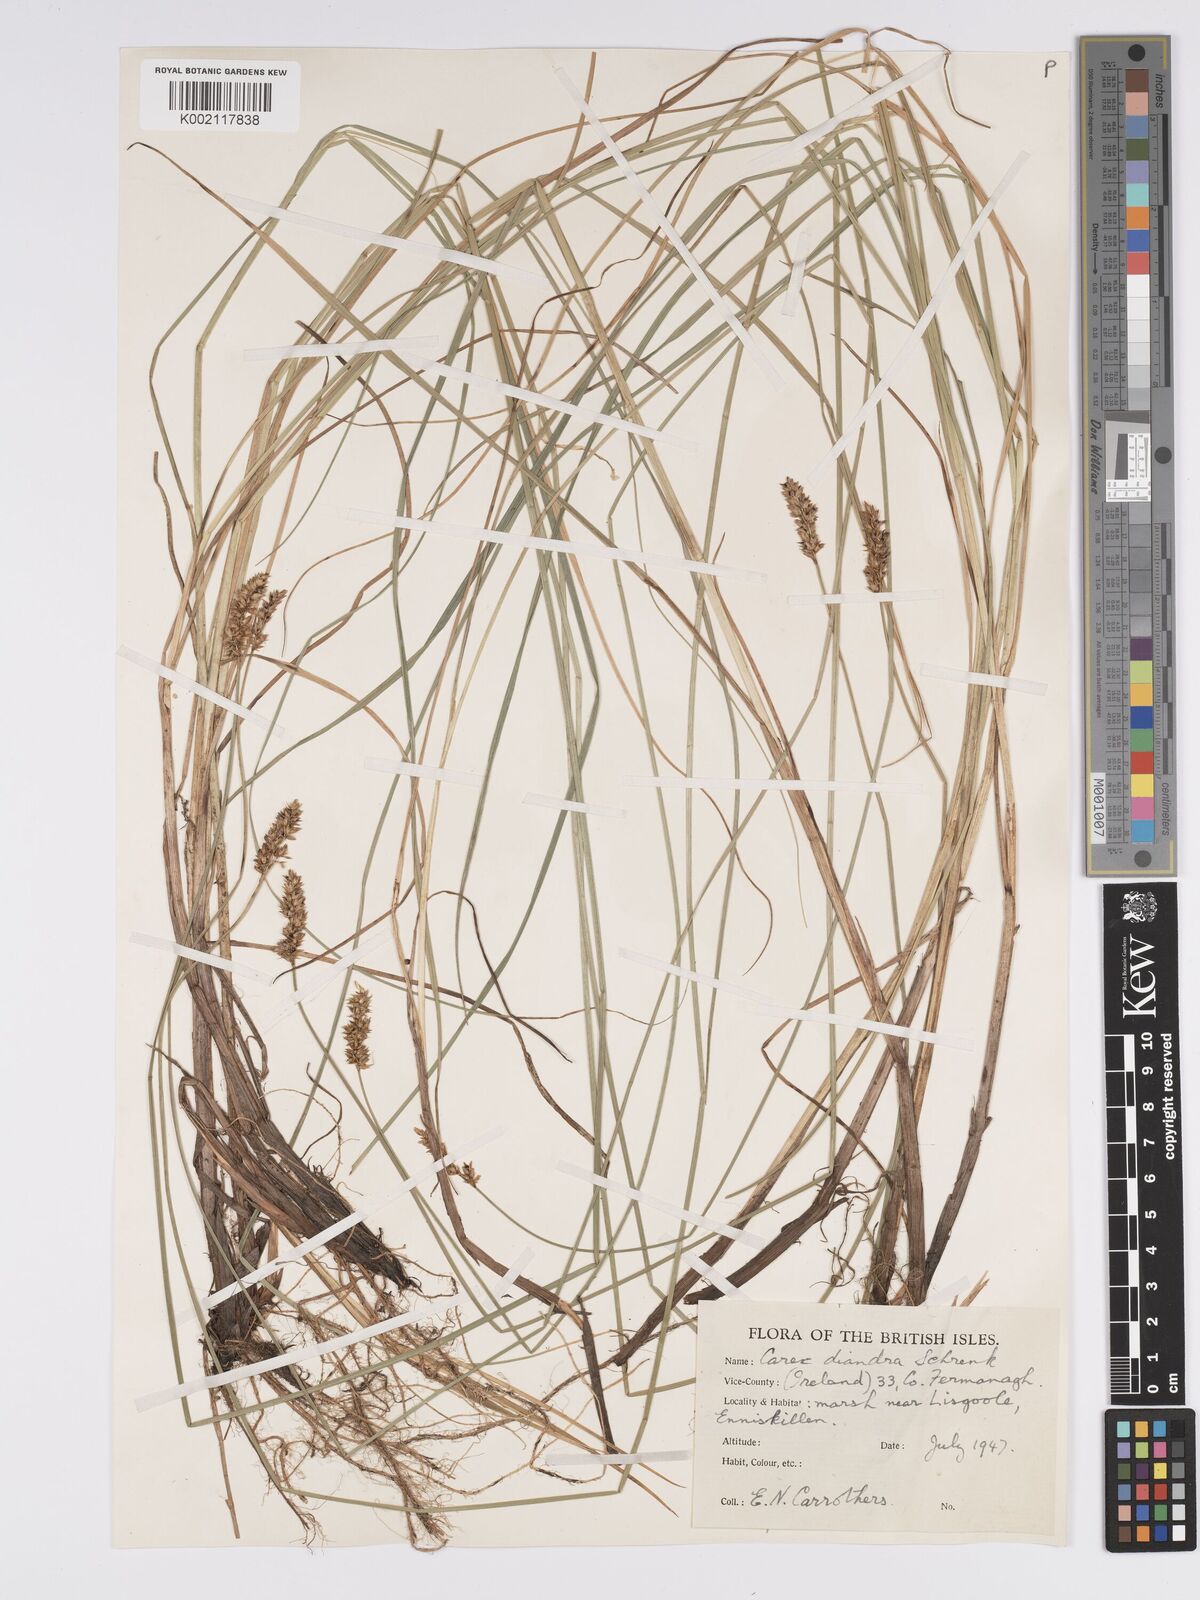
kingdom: Plantae
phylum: Tracheophyta
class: Liliopsida
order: Poales
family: Cyperaceae
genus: Carex
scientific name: Carex diandra
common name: Lesser tussock-sedge
